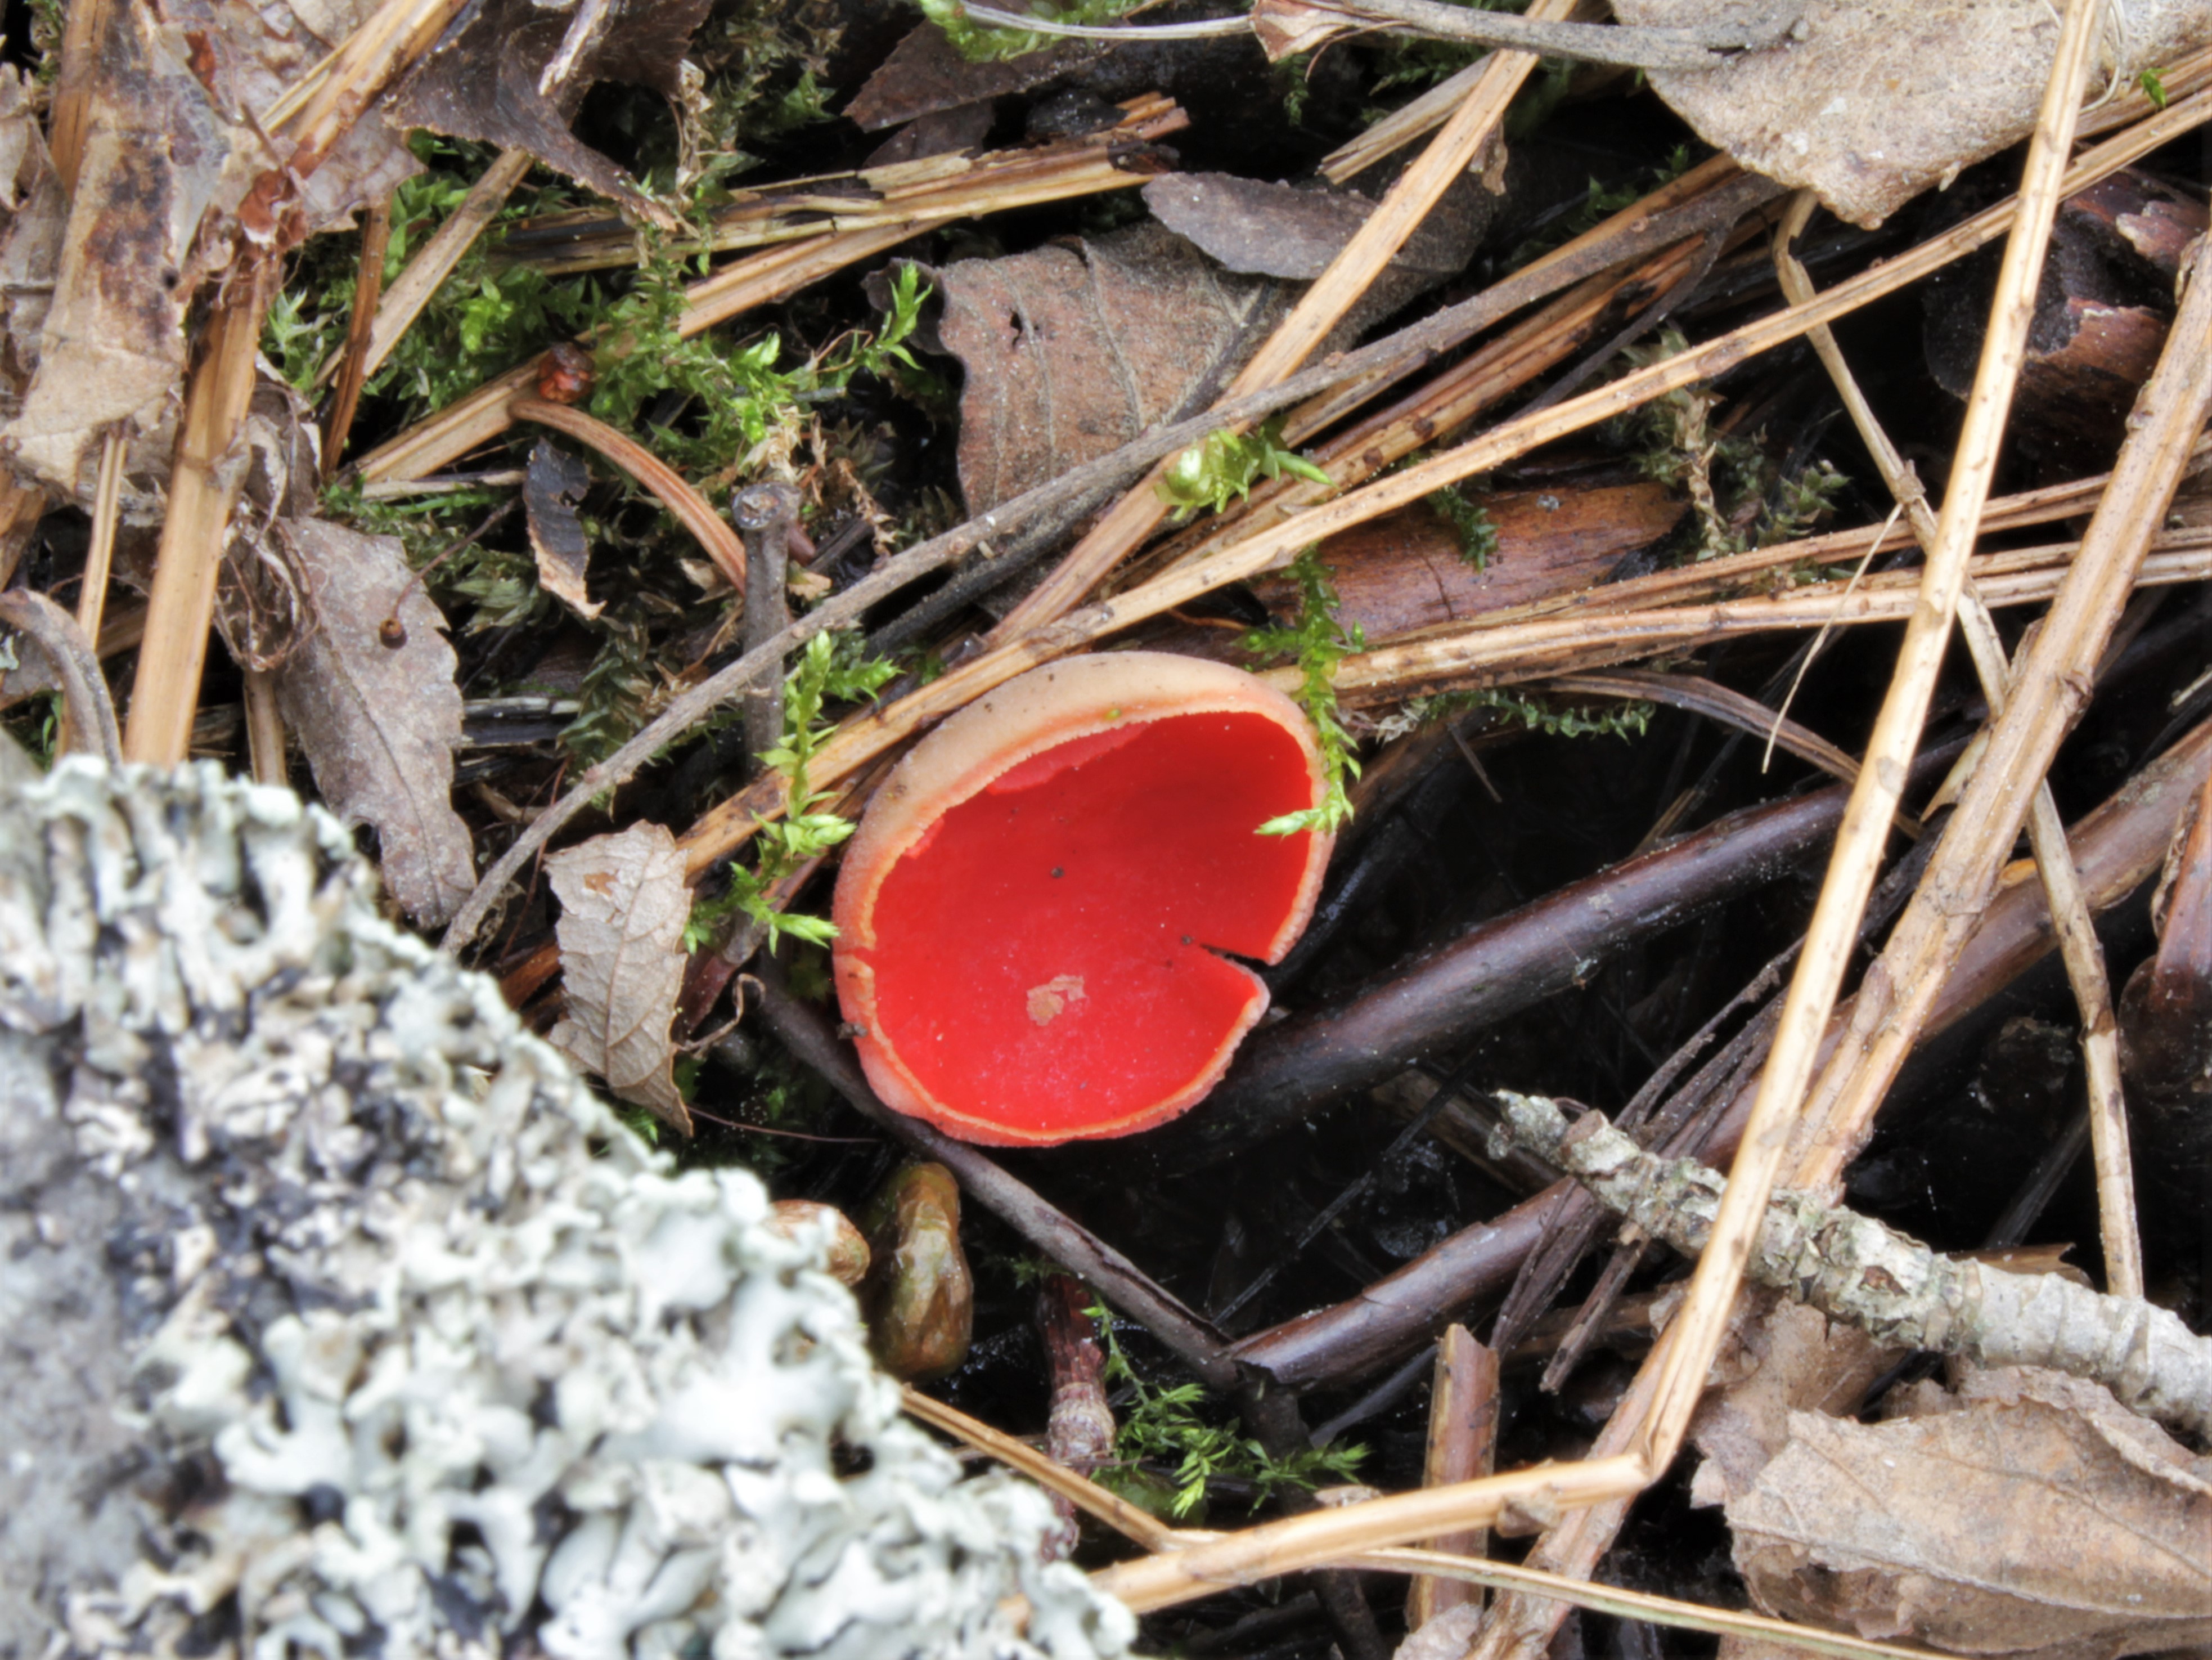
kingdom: Fungi
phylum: Ascomycota
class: Pezizomycetes
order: Pezizales
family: Sarcoscyphaceae
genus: Sarcoscypha
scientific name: Sarcoscypha austriaca
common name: Scarlet elfcup
